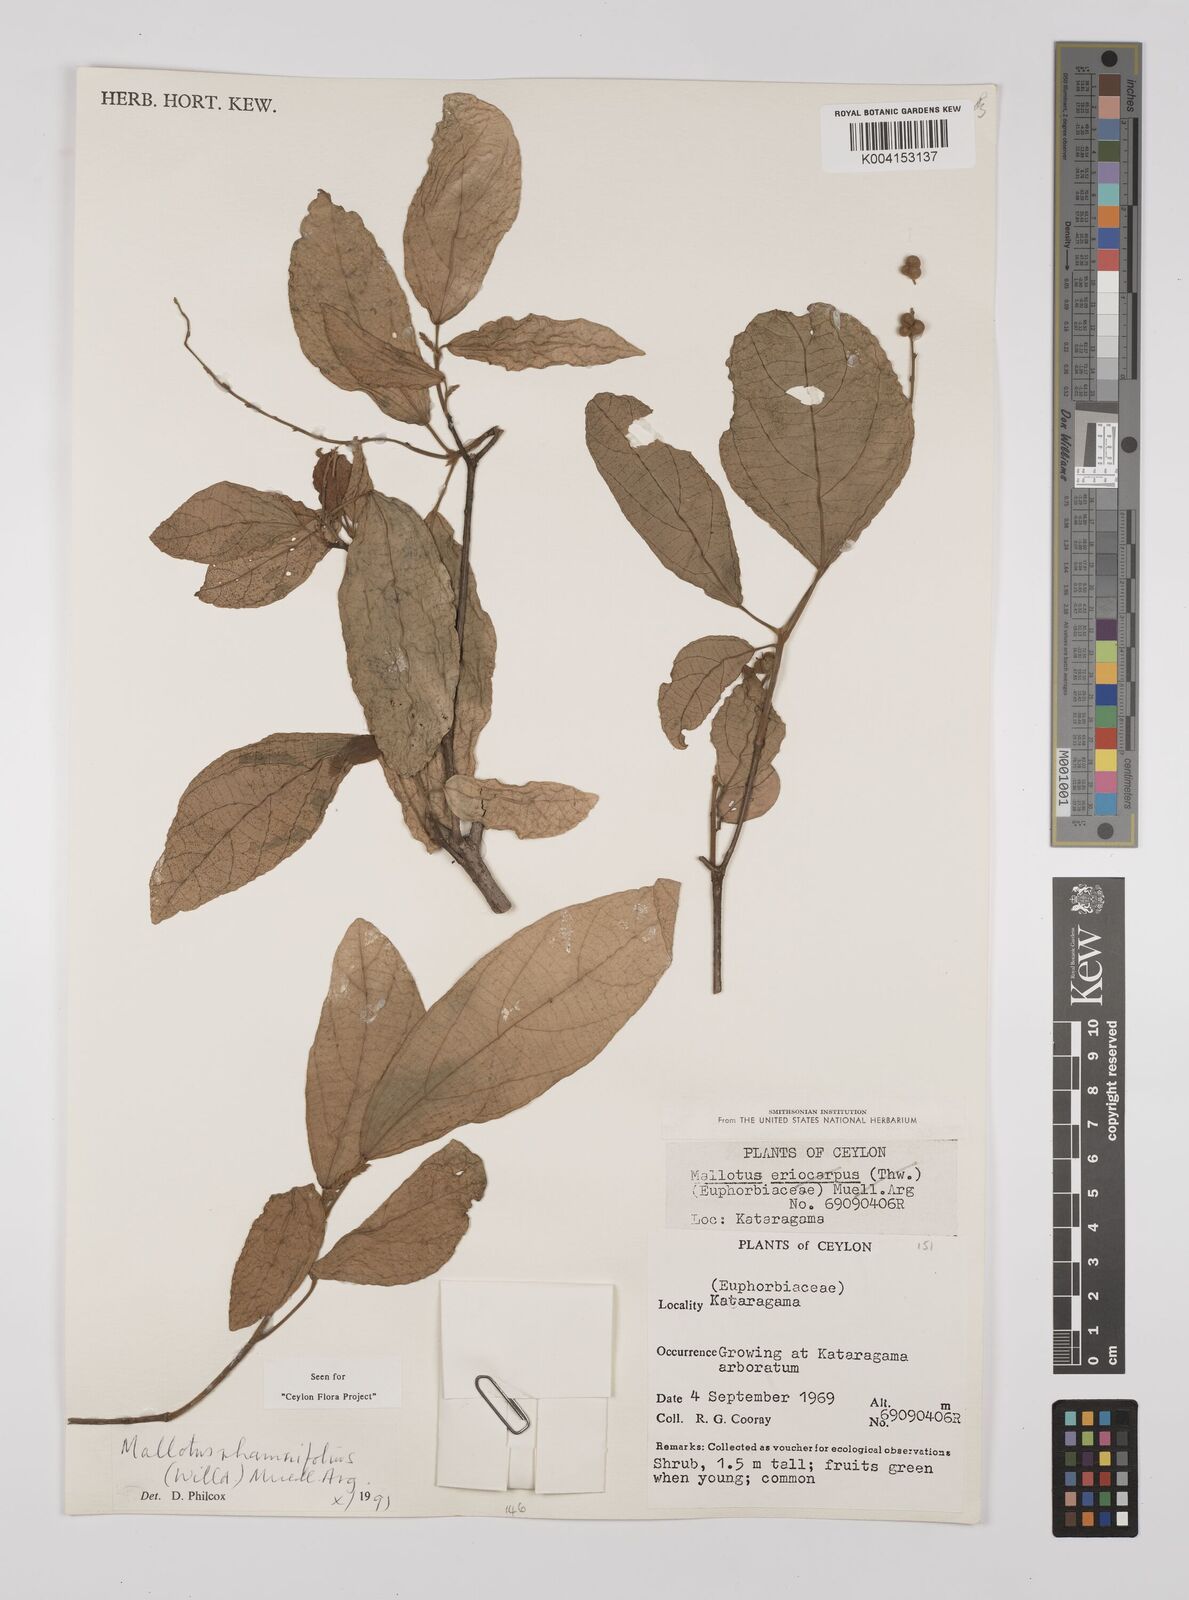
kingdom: Plantae
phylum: Tracheophyta
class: Magnoliopsida
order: Malpighiales
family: Euphorbiaceae
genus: Mallotus
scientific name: Mallotus rhamnifolius
